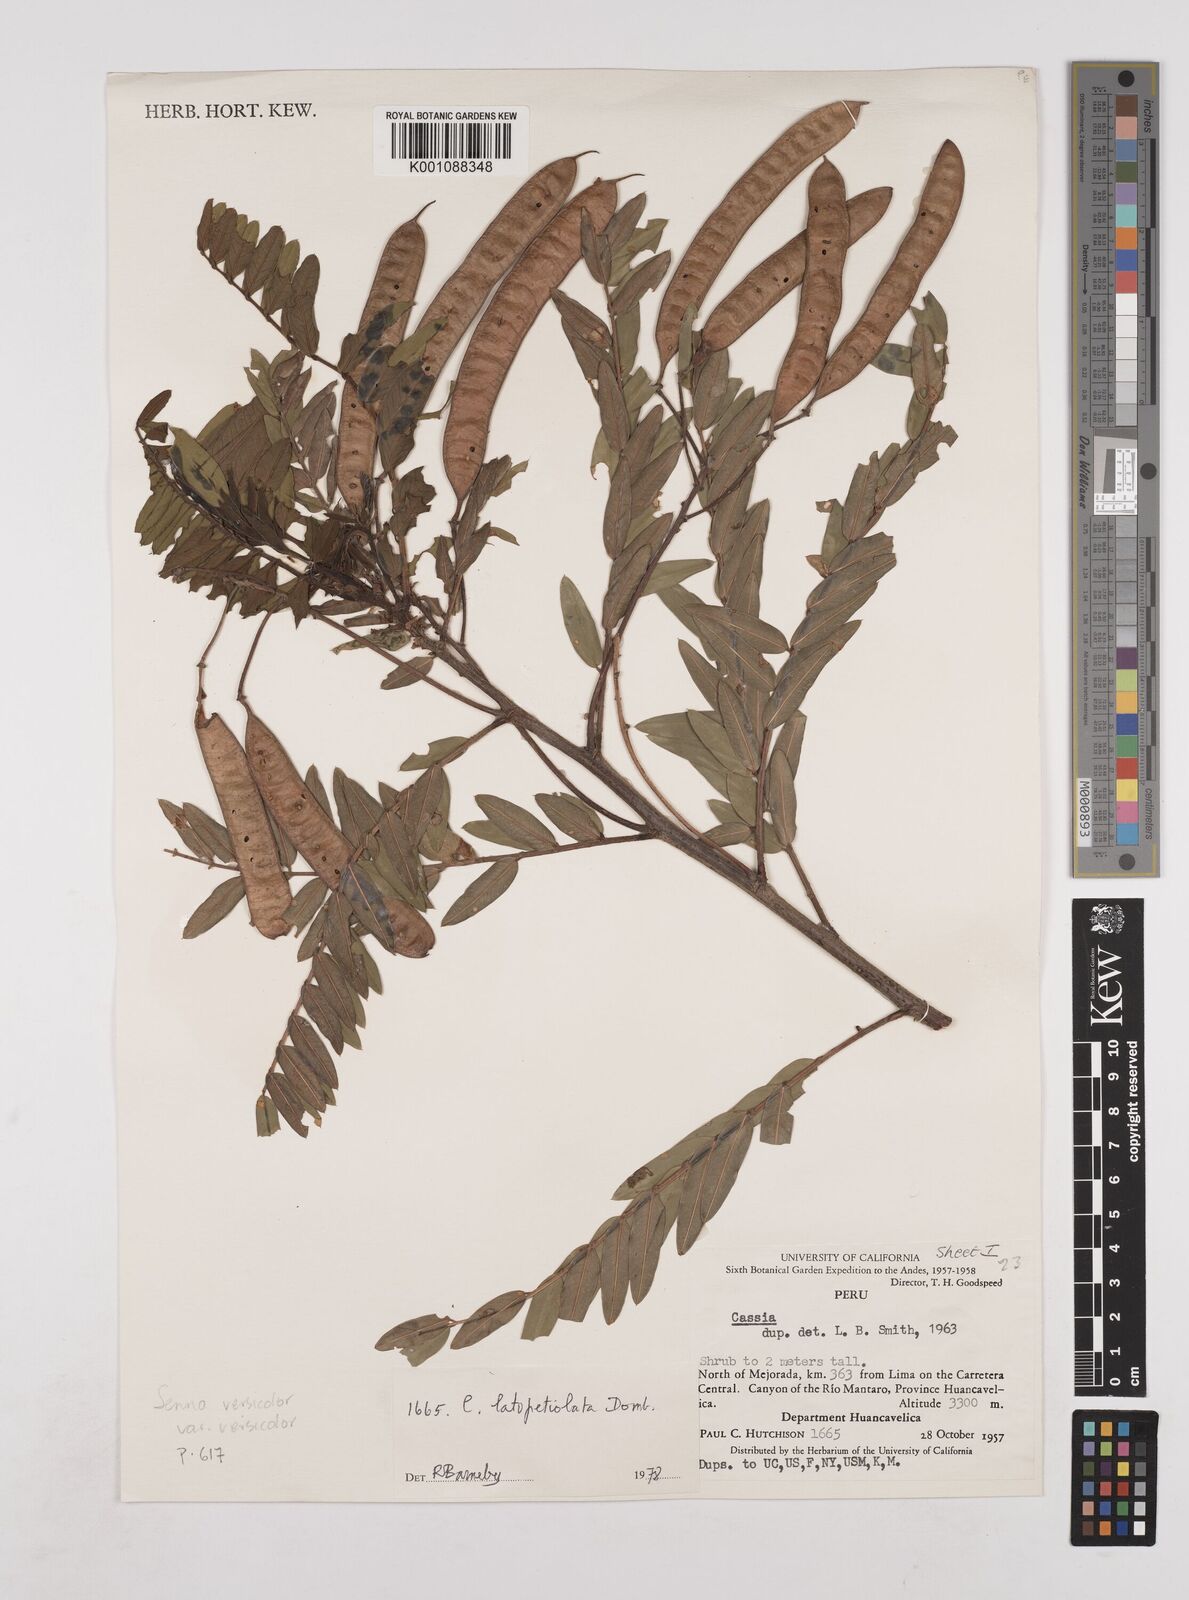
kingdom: Plantae
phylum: Tracheophyta
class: Magnoliopsida
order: Fabales
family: Fabaceae
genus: Senna
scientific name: Senna versicolor
